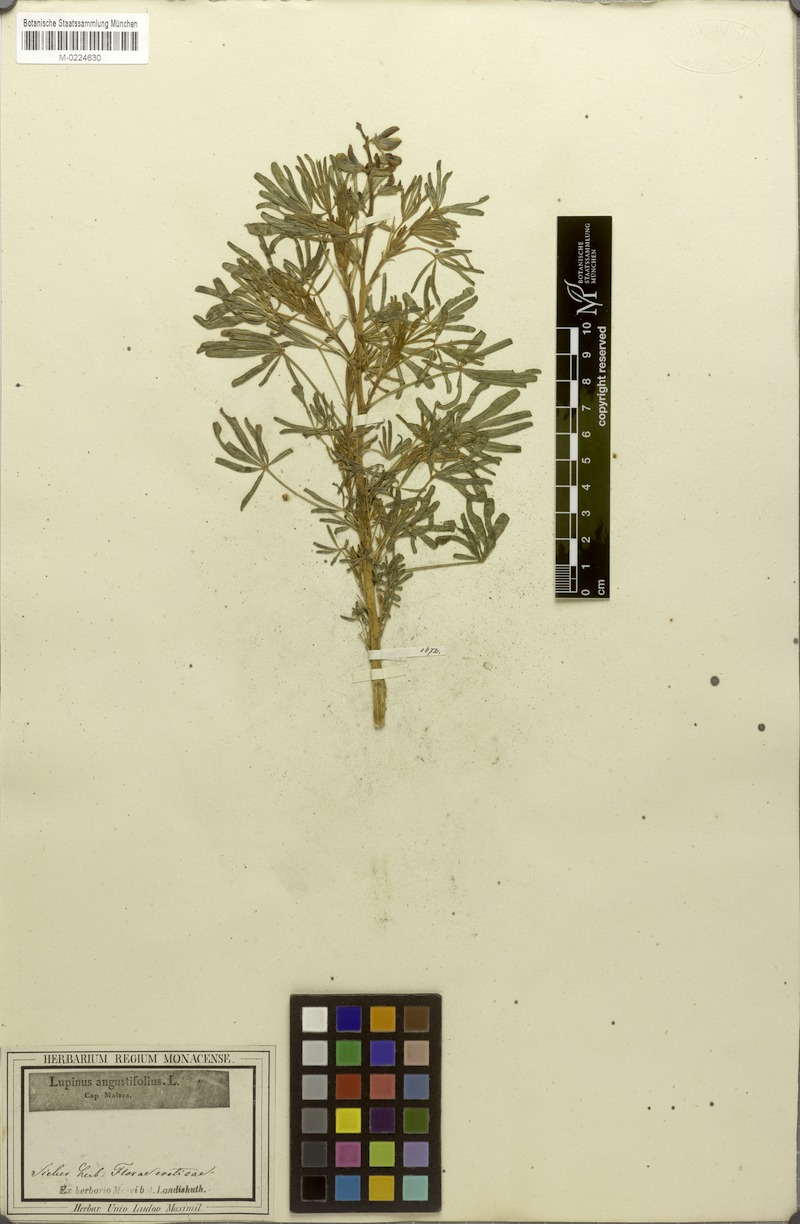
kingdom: Plantae
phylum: Tracheophyta
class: Magnoliopsida
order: Fabales
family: Fabaceae
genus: Lupinus
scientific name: Lupinus angustifolius
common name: Narrow-leaved lupin
